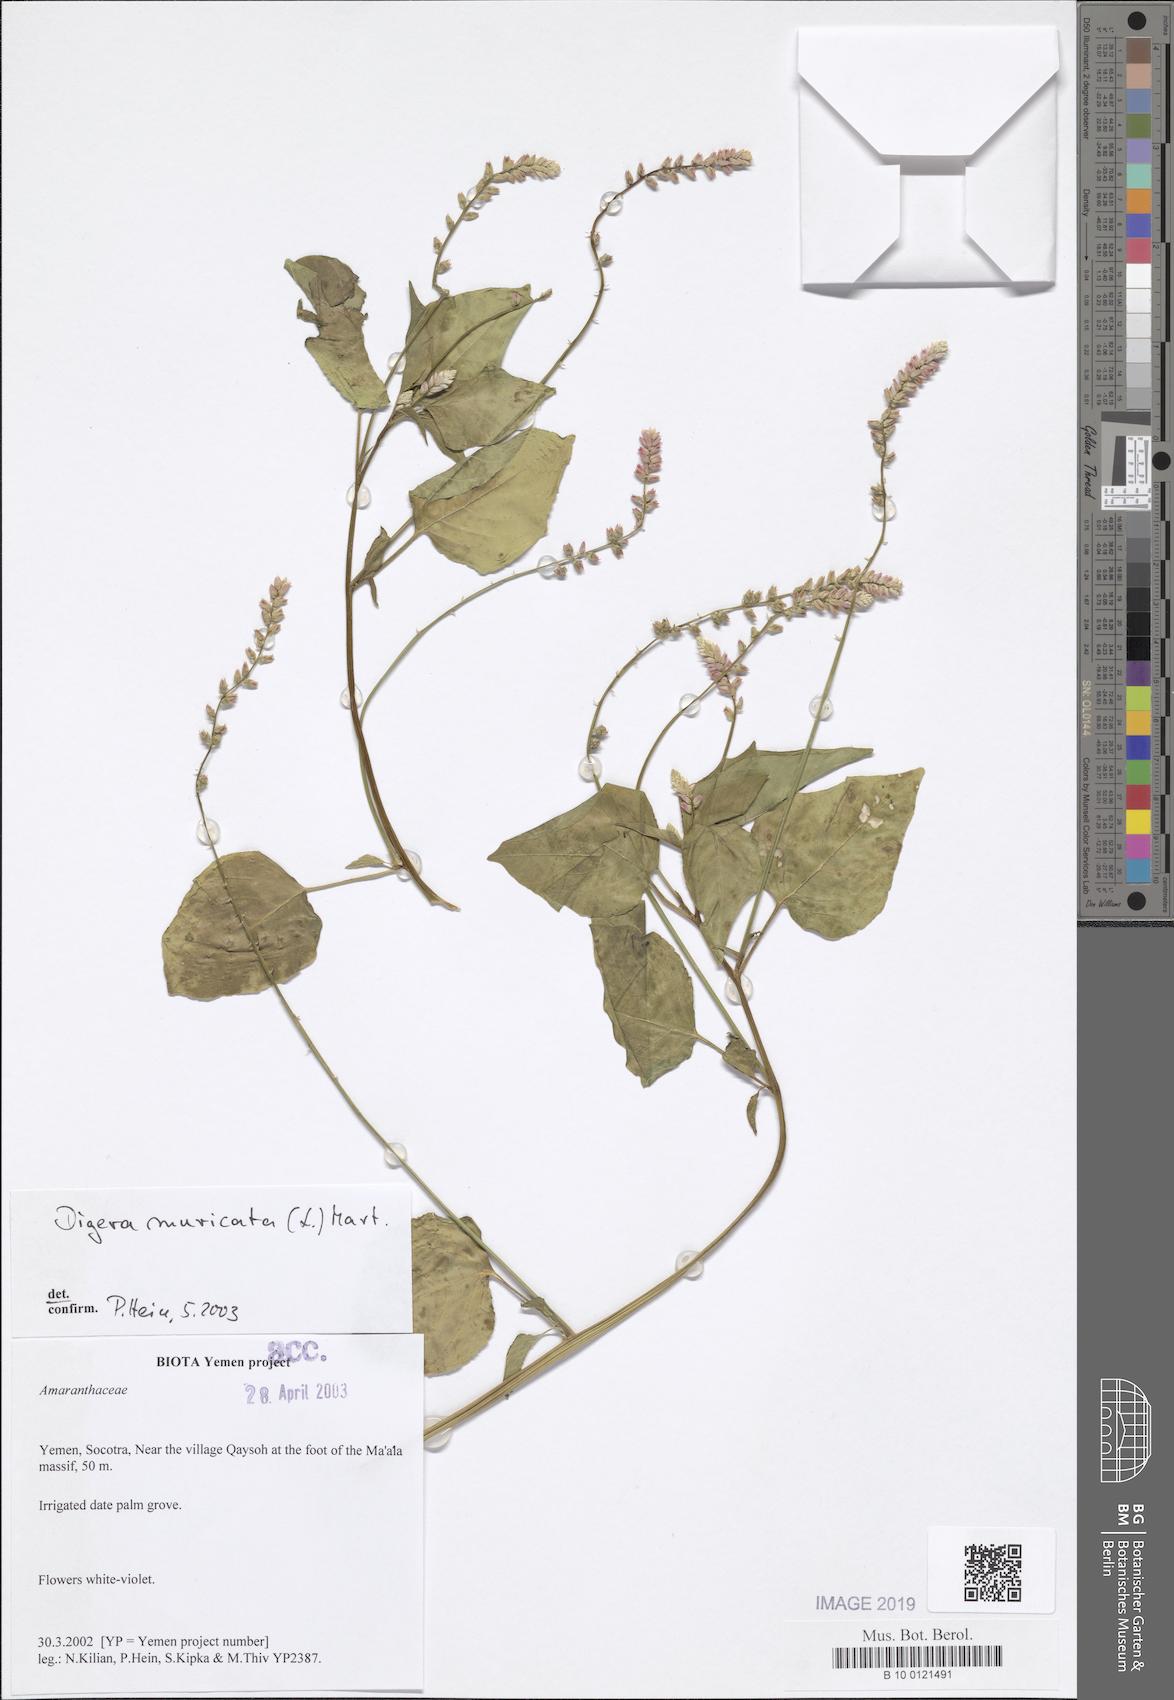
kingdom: Plantae
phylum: Tracheophyta
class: Magnoliopsida
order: Caryophyllales
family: Amaranthaceae
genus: Digera
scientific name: Digera muricata
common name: False amaranth
